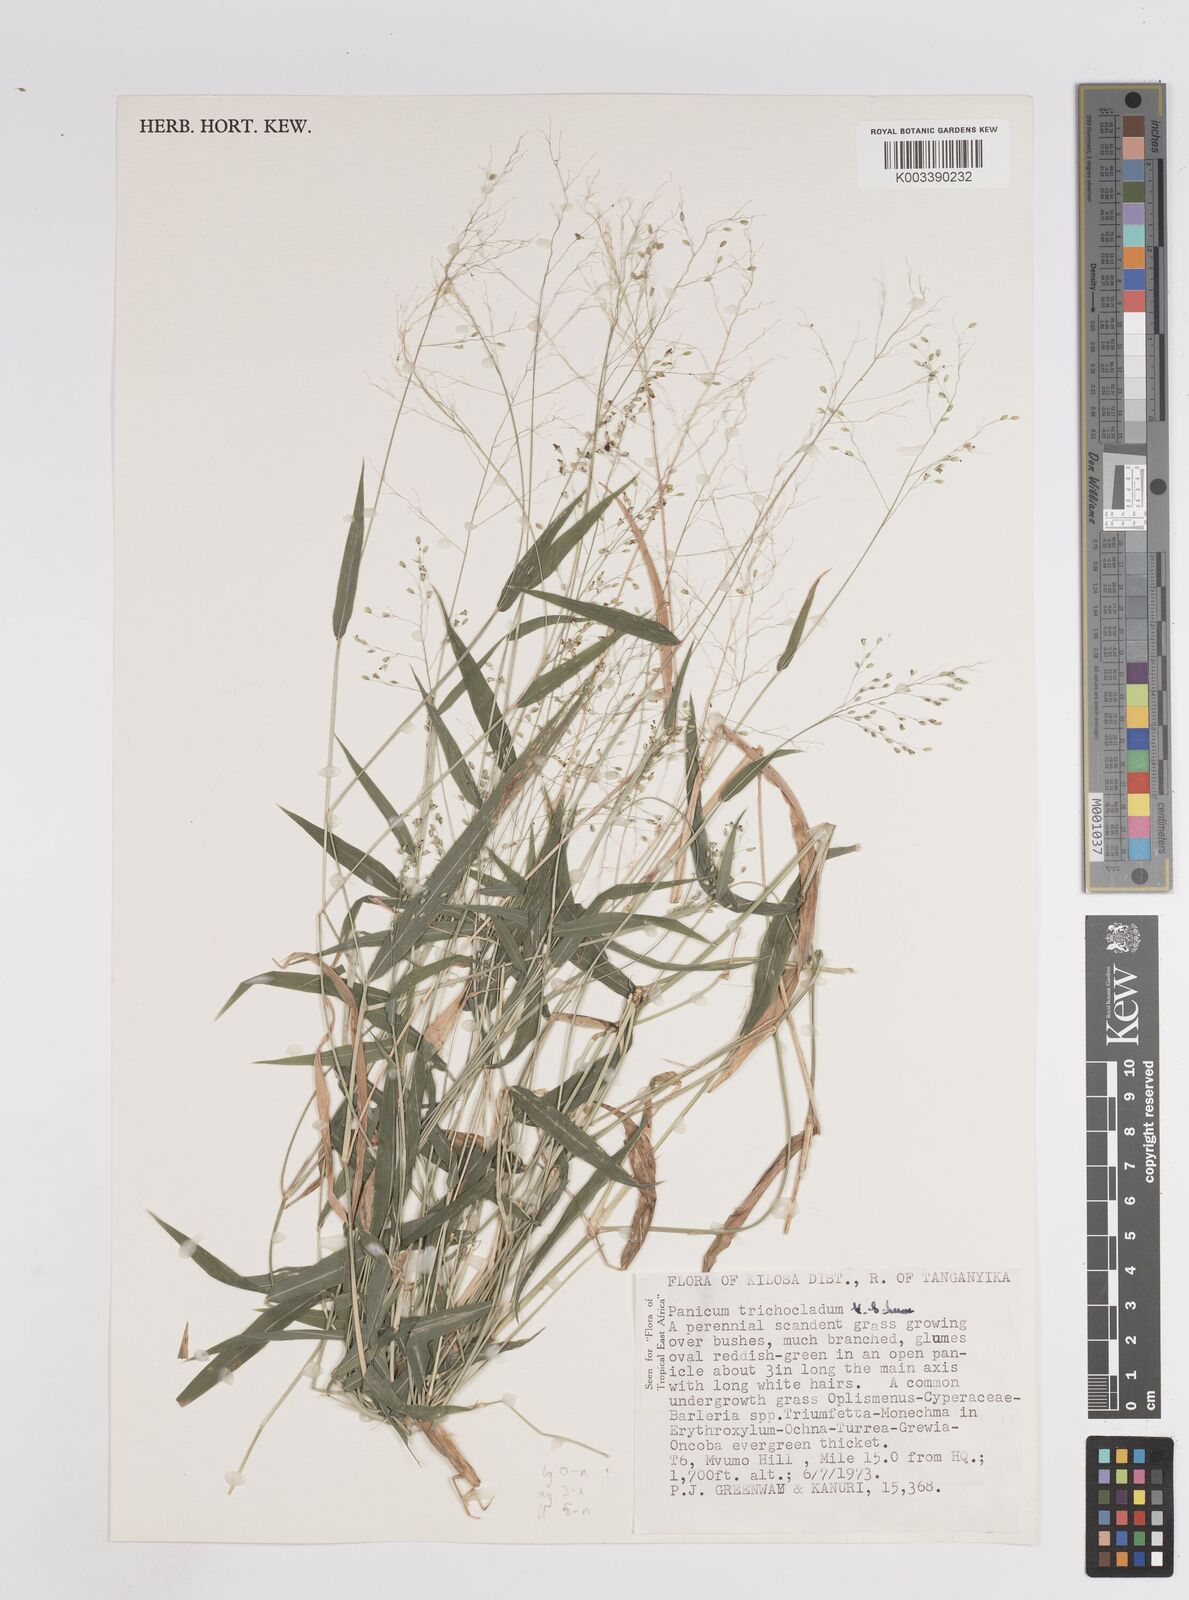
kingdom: Plantae
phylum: Tracheophyta
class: Liliopsida
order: Poales
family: Poaceae
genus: Panicum
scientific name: Panicum trichocladum
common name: Donkey grass
